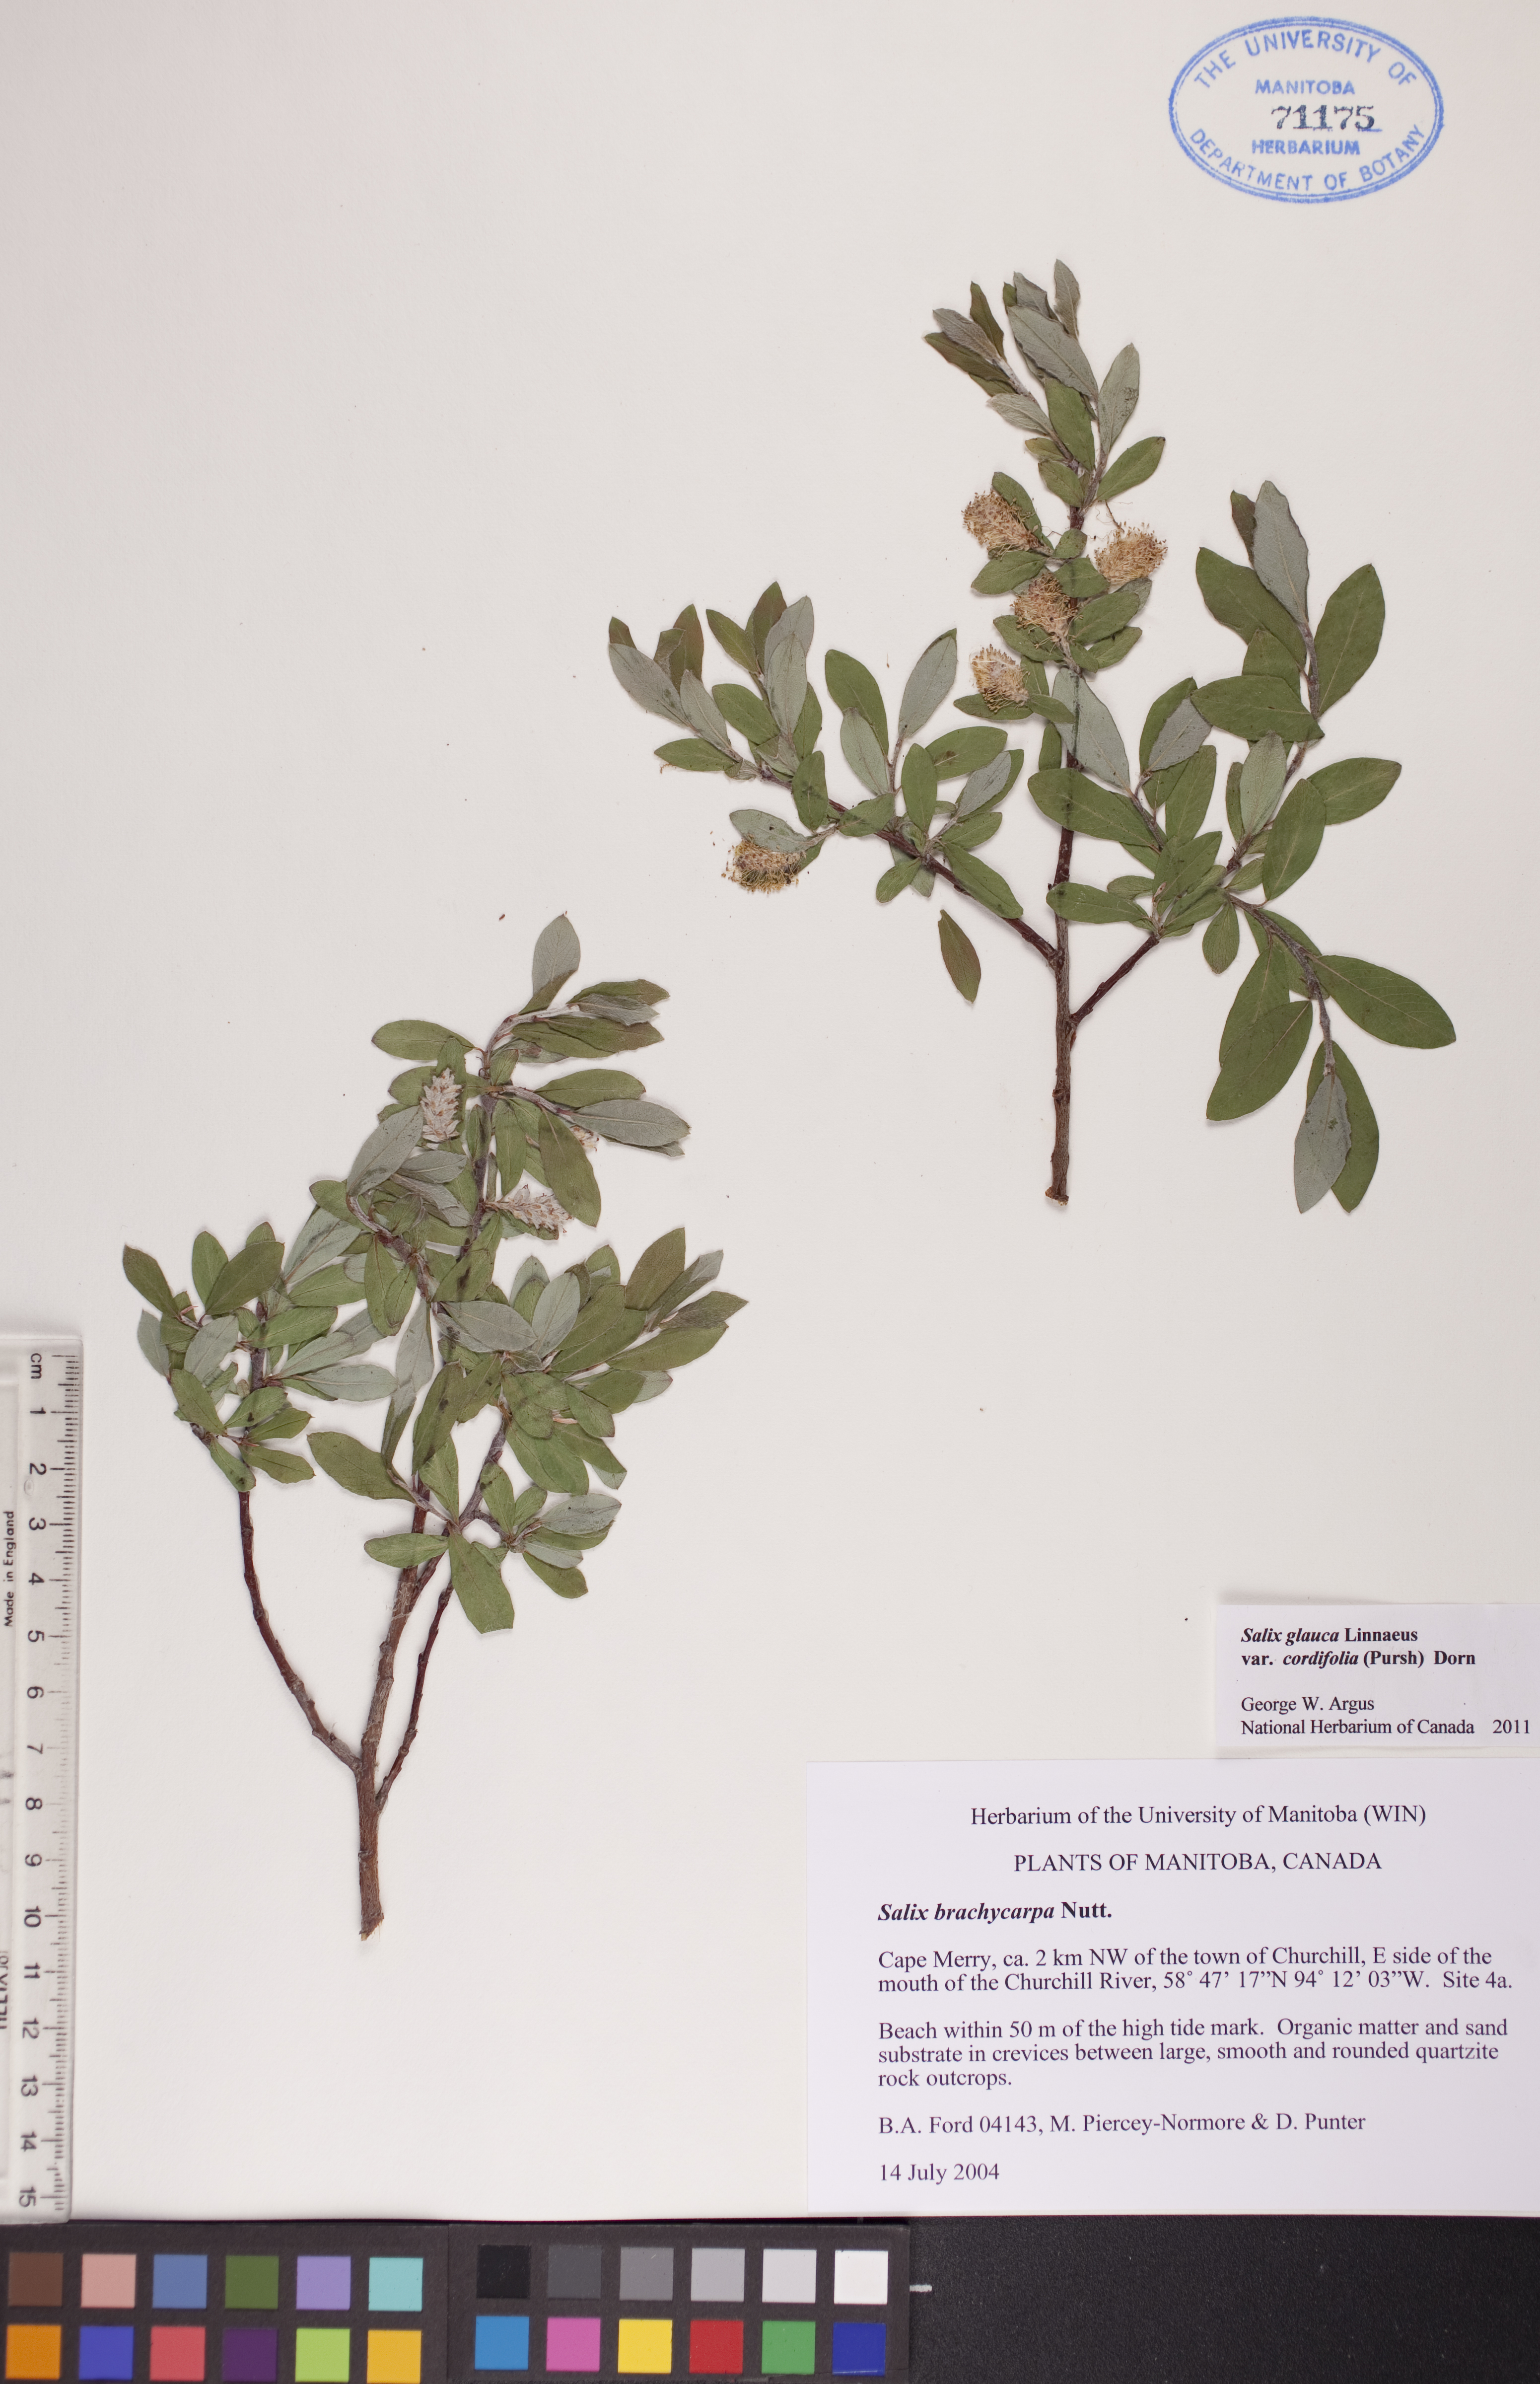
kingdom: Plantae
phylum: Tracheophyta
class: Magnoliopsida
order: Malpighiales
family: Salicaceae
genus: Salix
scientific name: Salix glauca
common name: Glaucous willow
